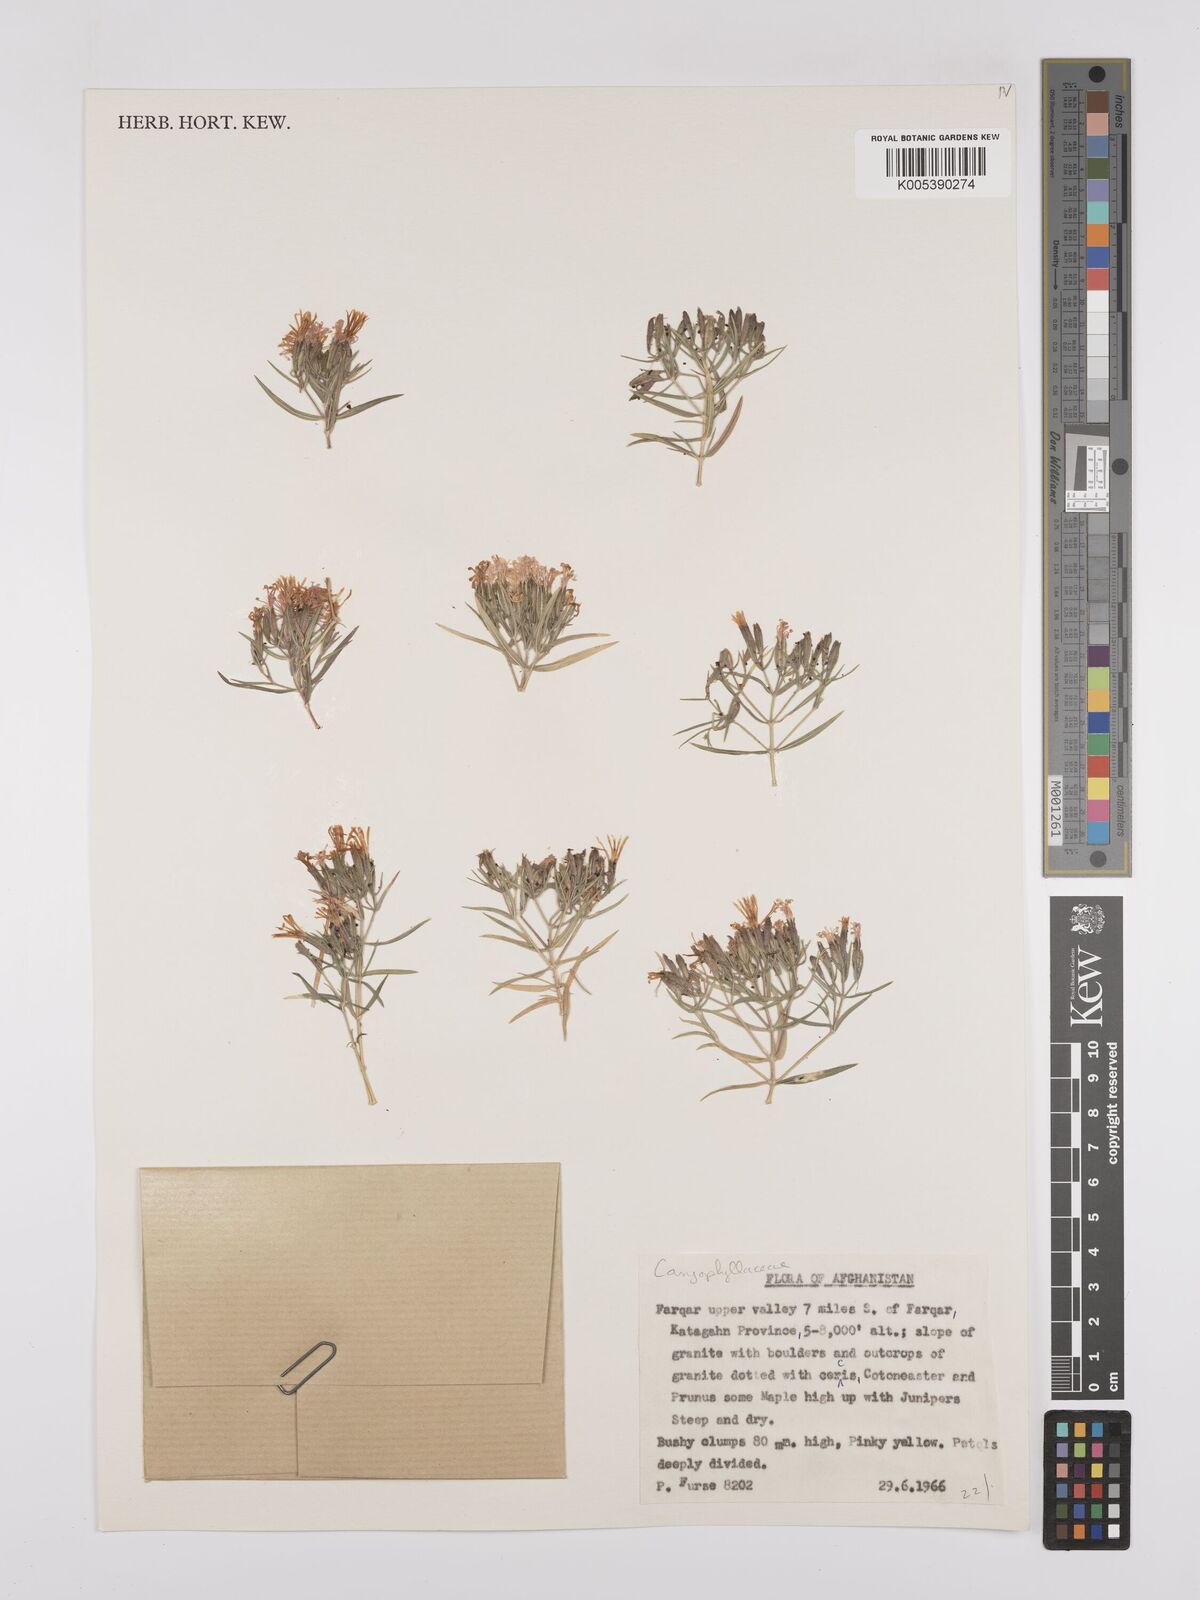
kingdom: Plantae
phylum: Tracheophyta
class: Magnoliopsida
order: Caryophyllales
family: Caryophyllaceae
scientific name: Caryophyllaceae
